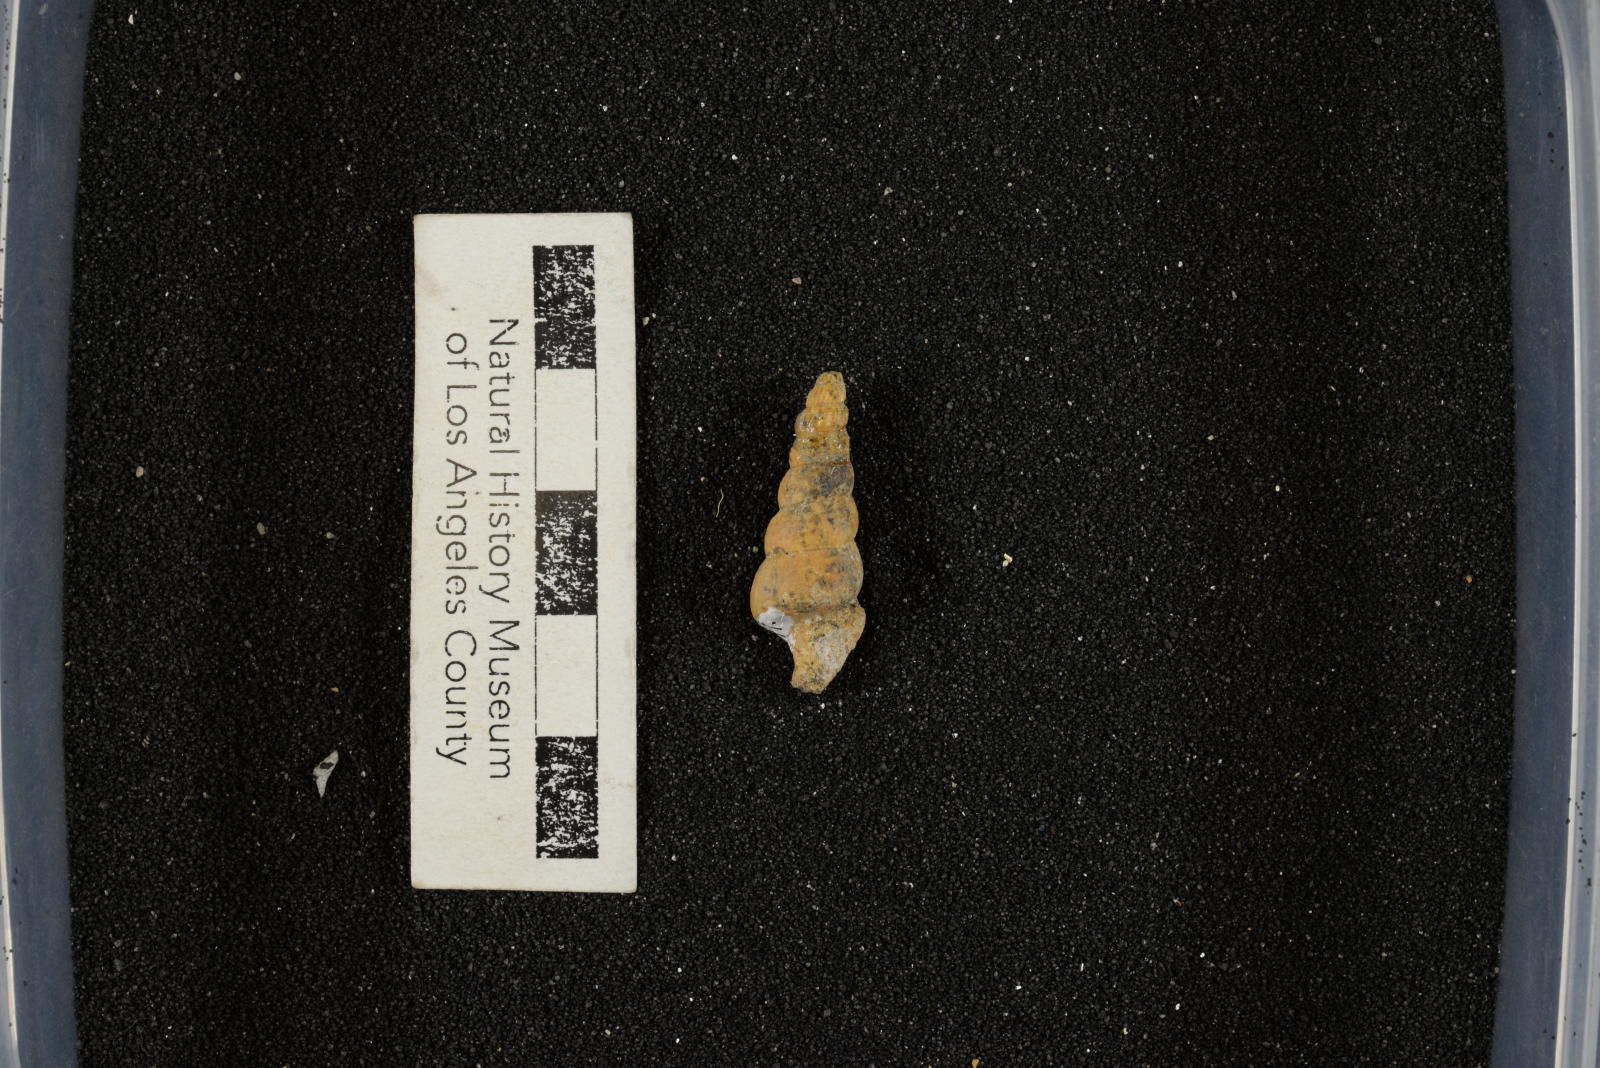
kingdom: Animalia
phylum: Mollusca
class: Gastropoda
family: Turritellidae
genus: Turritella
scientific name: Turritella
